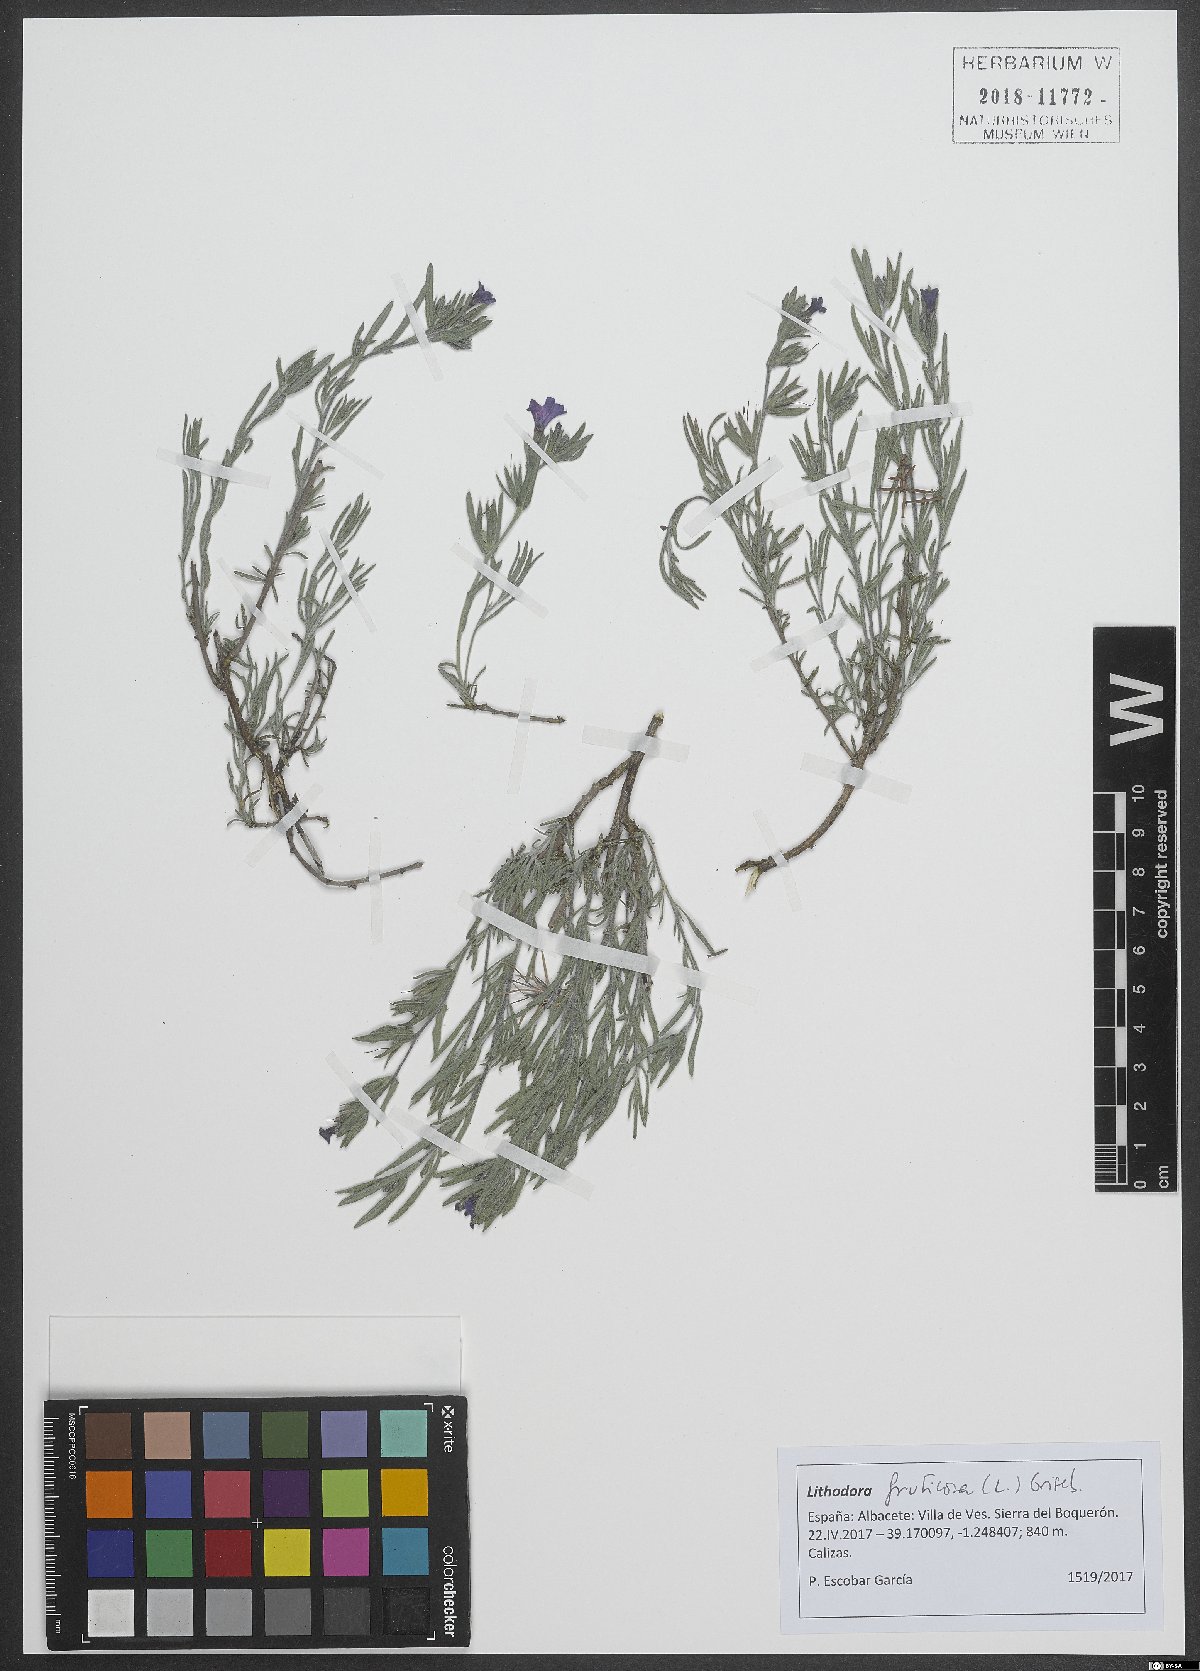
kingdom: Plantae
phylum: Tracheophyta
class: Magnoliopsida
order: Boraginales
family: Boraginaceae
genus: Lithodora
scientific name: Lithodora fruticosa
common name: Shrubby gromwell
